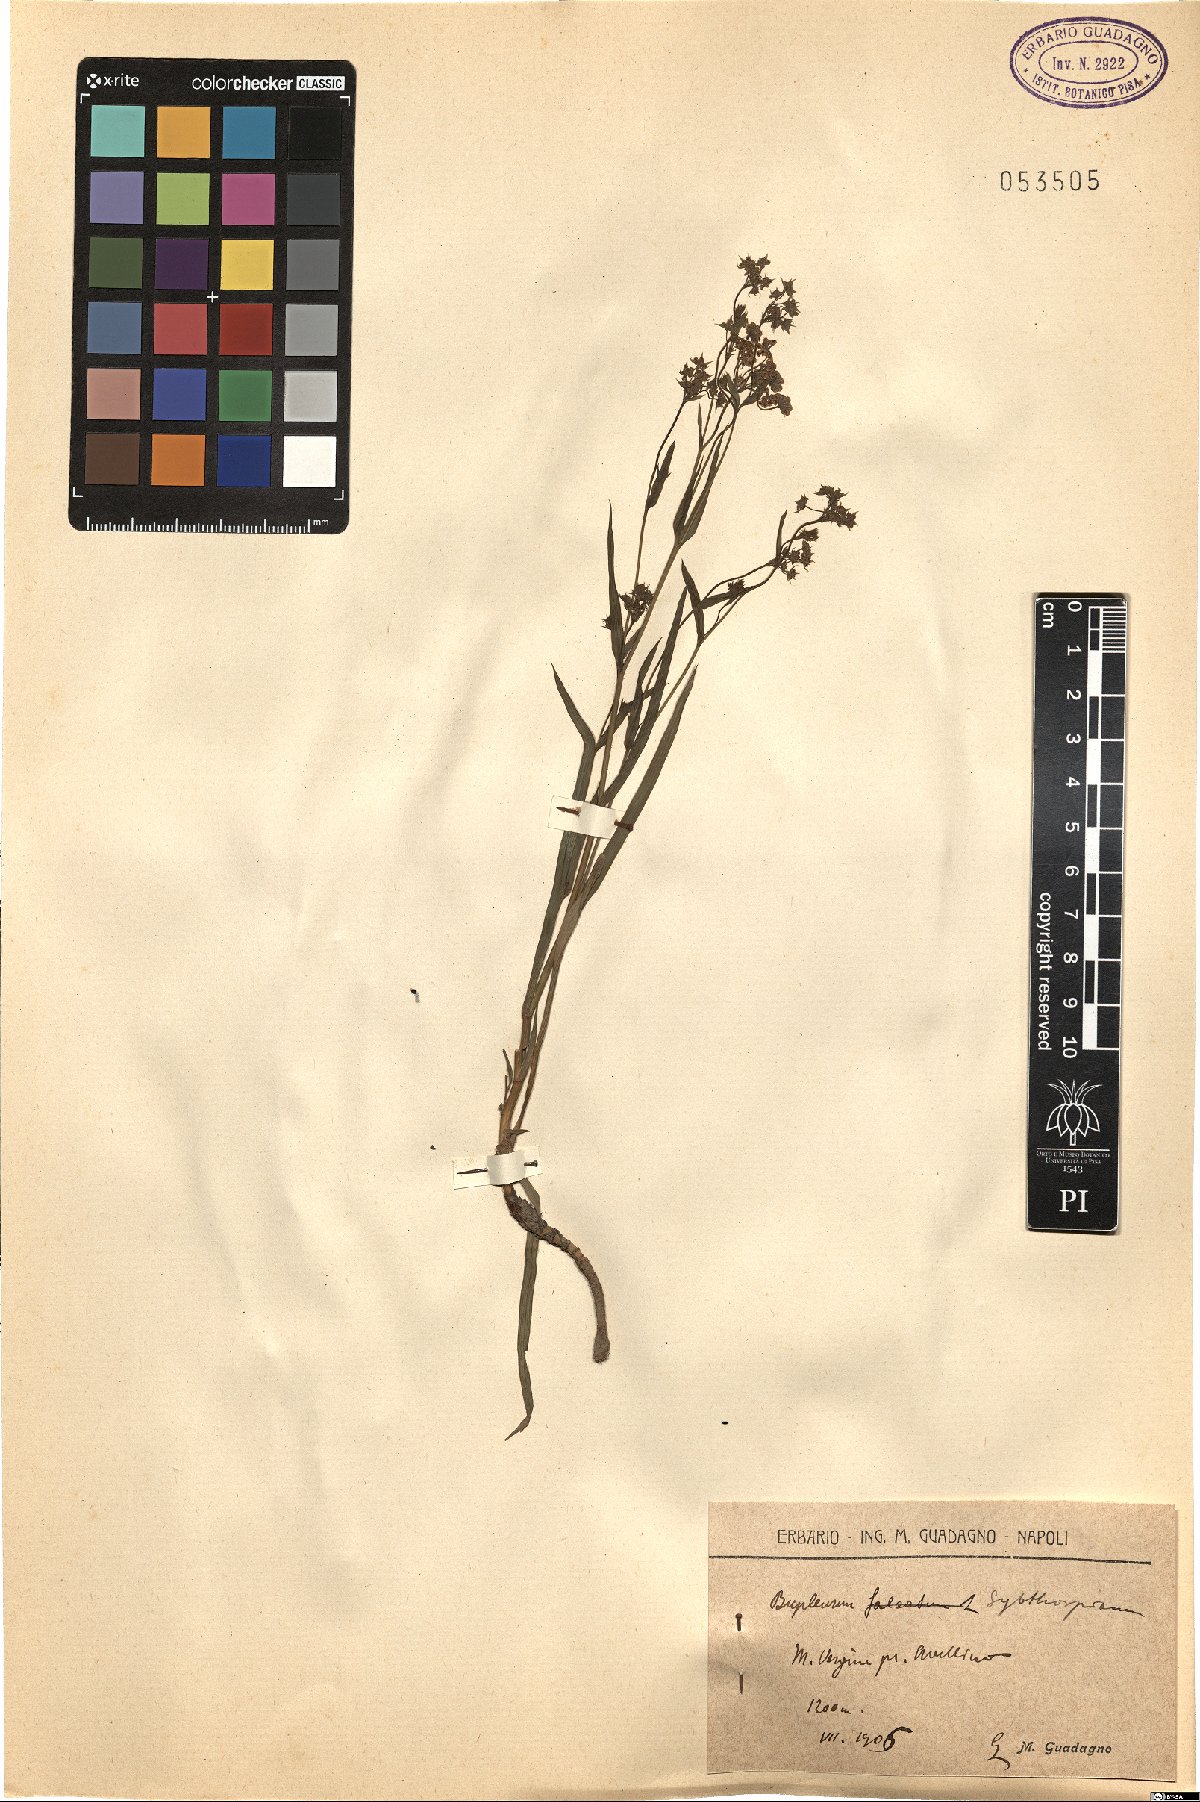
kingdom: Plantae
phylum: Tracheophyta
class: Magnoliopsida
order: Apiales
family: Apiaceae
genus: Bupleurum
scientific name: Bupleurum falcatum
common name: Sickle-leaved hare's-ear
